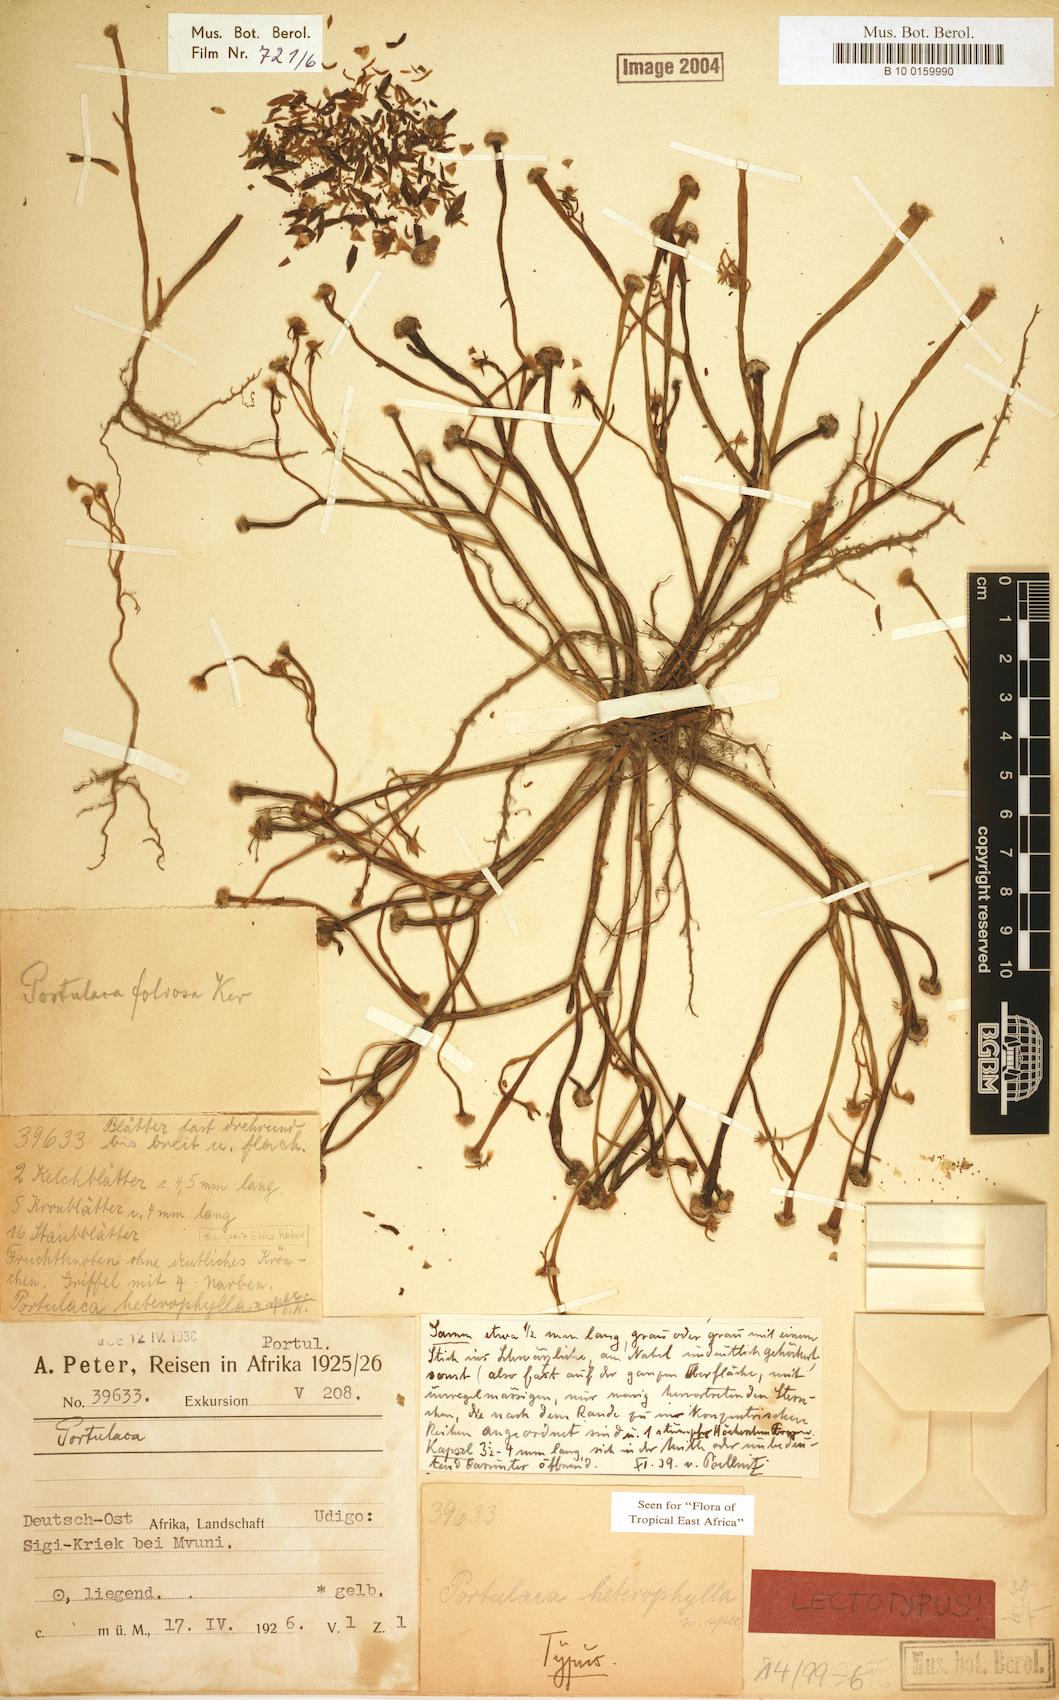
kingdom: Plantae
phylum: Tracheophyta
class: Magnoliopsida
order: Caryophyllales
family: Portulacaceae
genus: Portulaca
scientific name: Portulaca heterophylla
